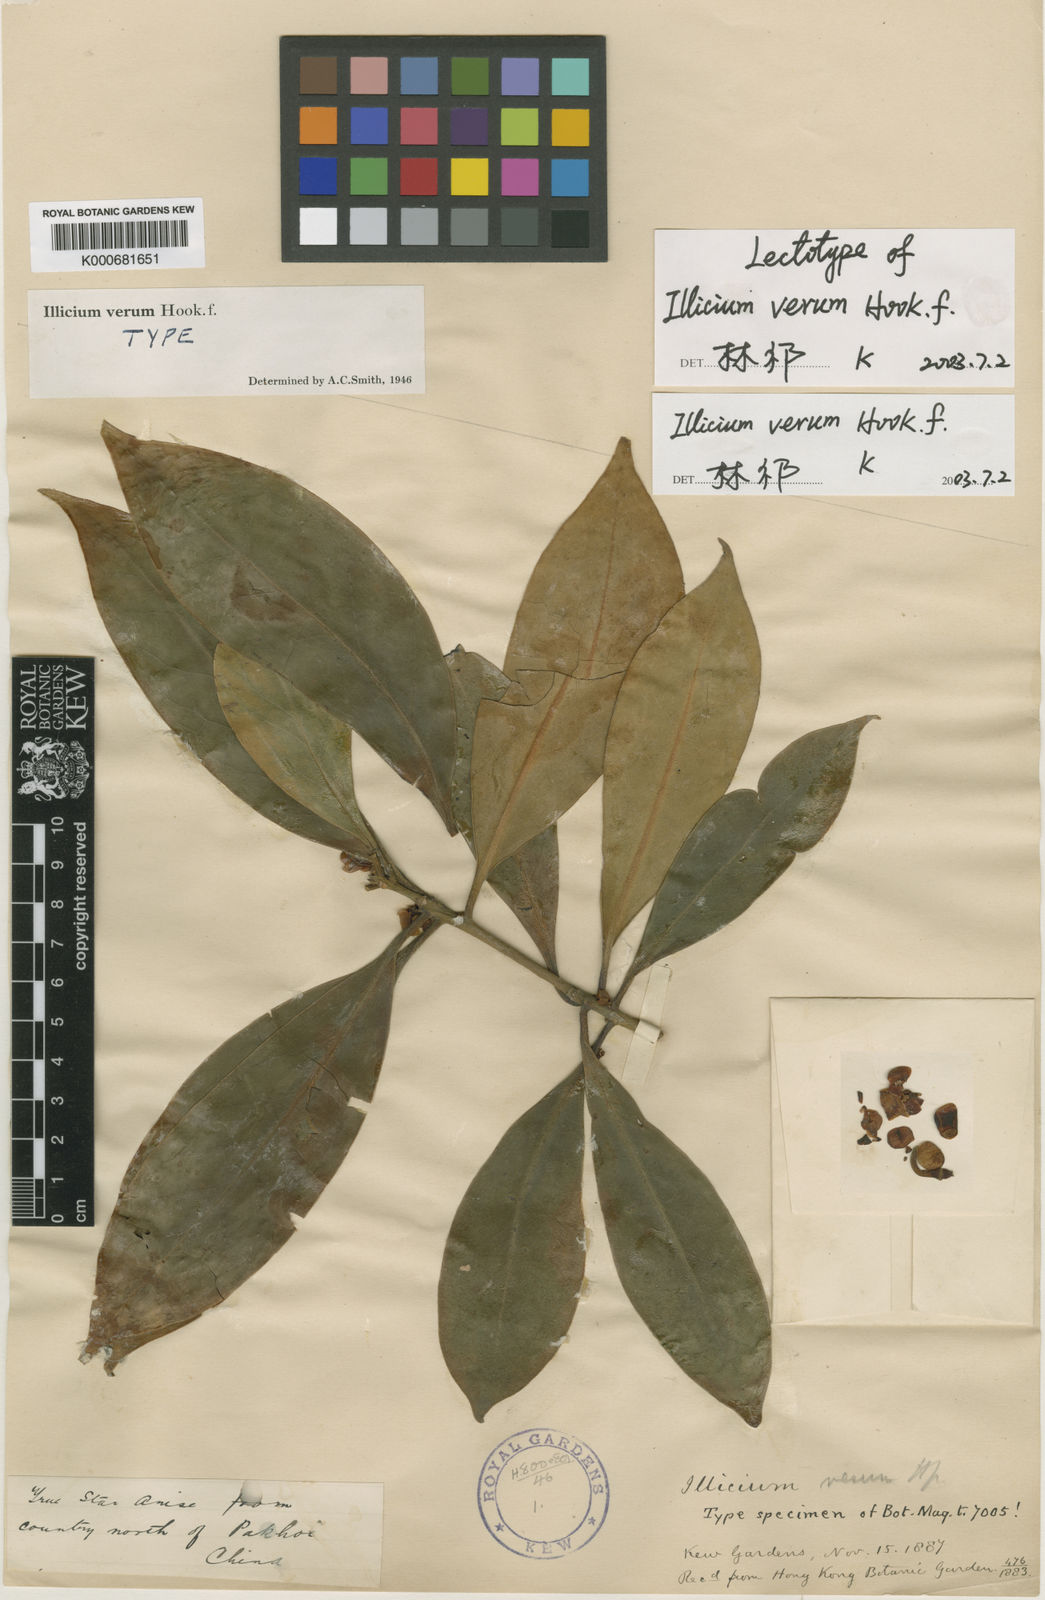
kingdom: Plantae
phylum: Tracheophyta
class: Magnoliopsida
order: Austrobaileyales
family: Schisandraceae
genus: Illicium
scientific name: Illicium verum
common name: Chinese star-anise
